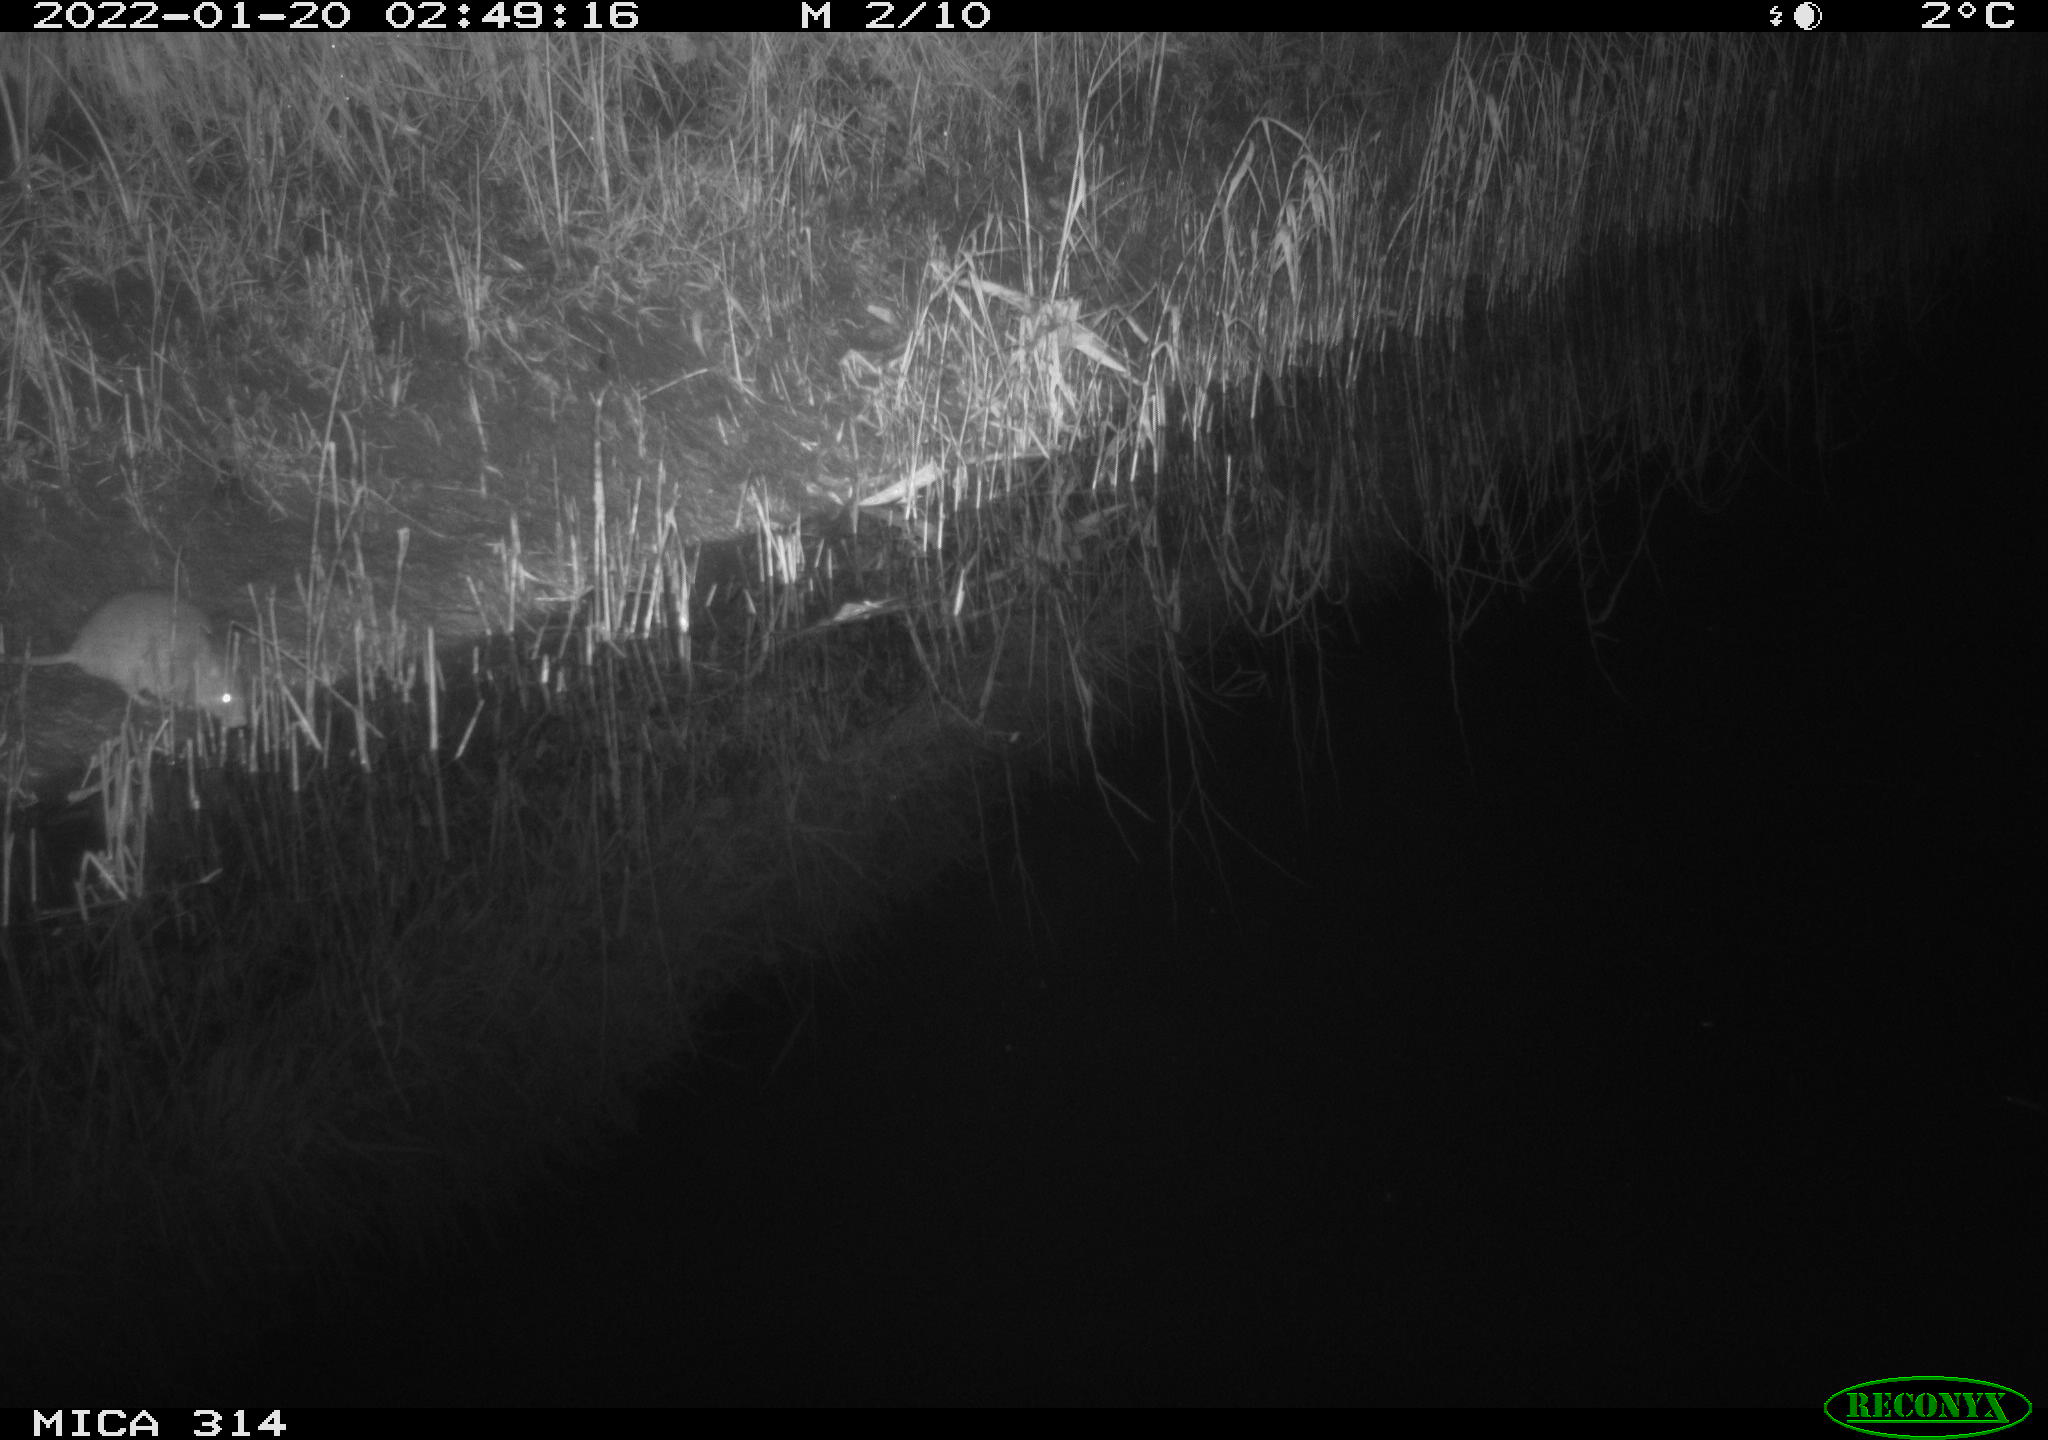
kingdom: Animalia
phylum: Chordata
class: Mammalia
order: Rodentia
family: Muridae
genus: Rattus
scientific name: Rattus norvegicus
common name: Brown rat
